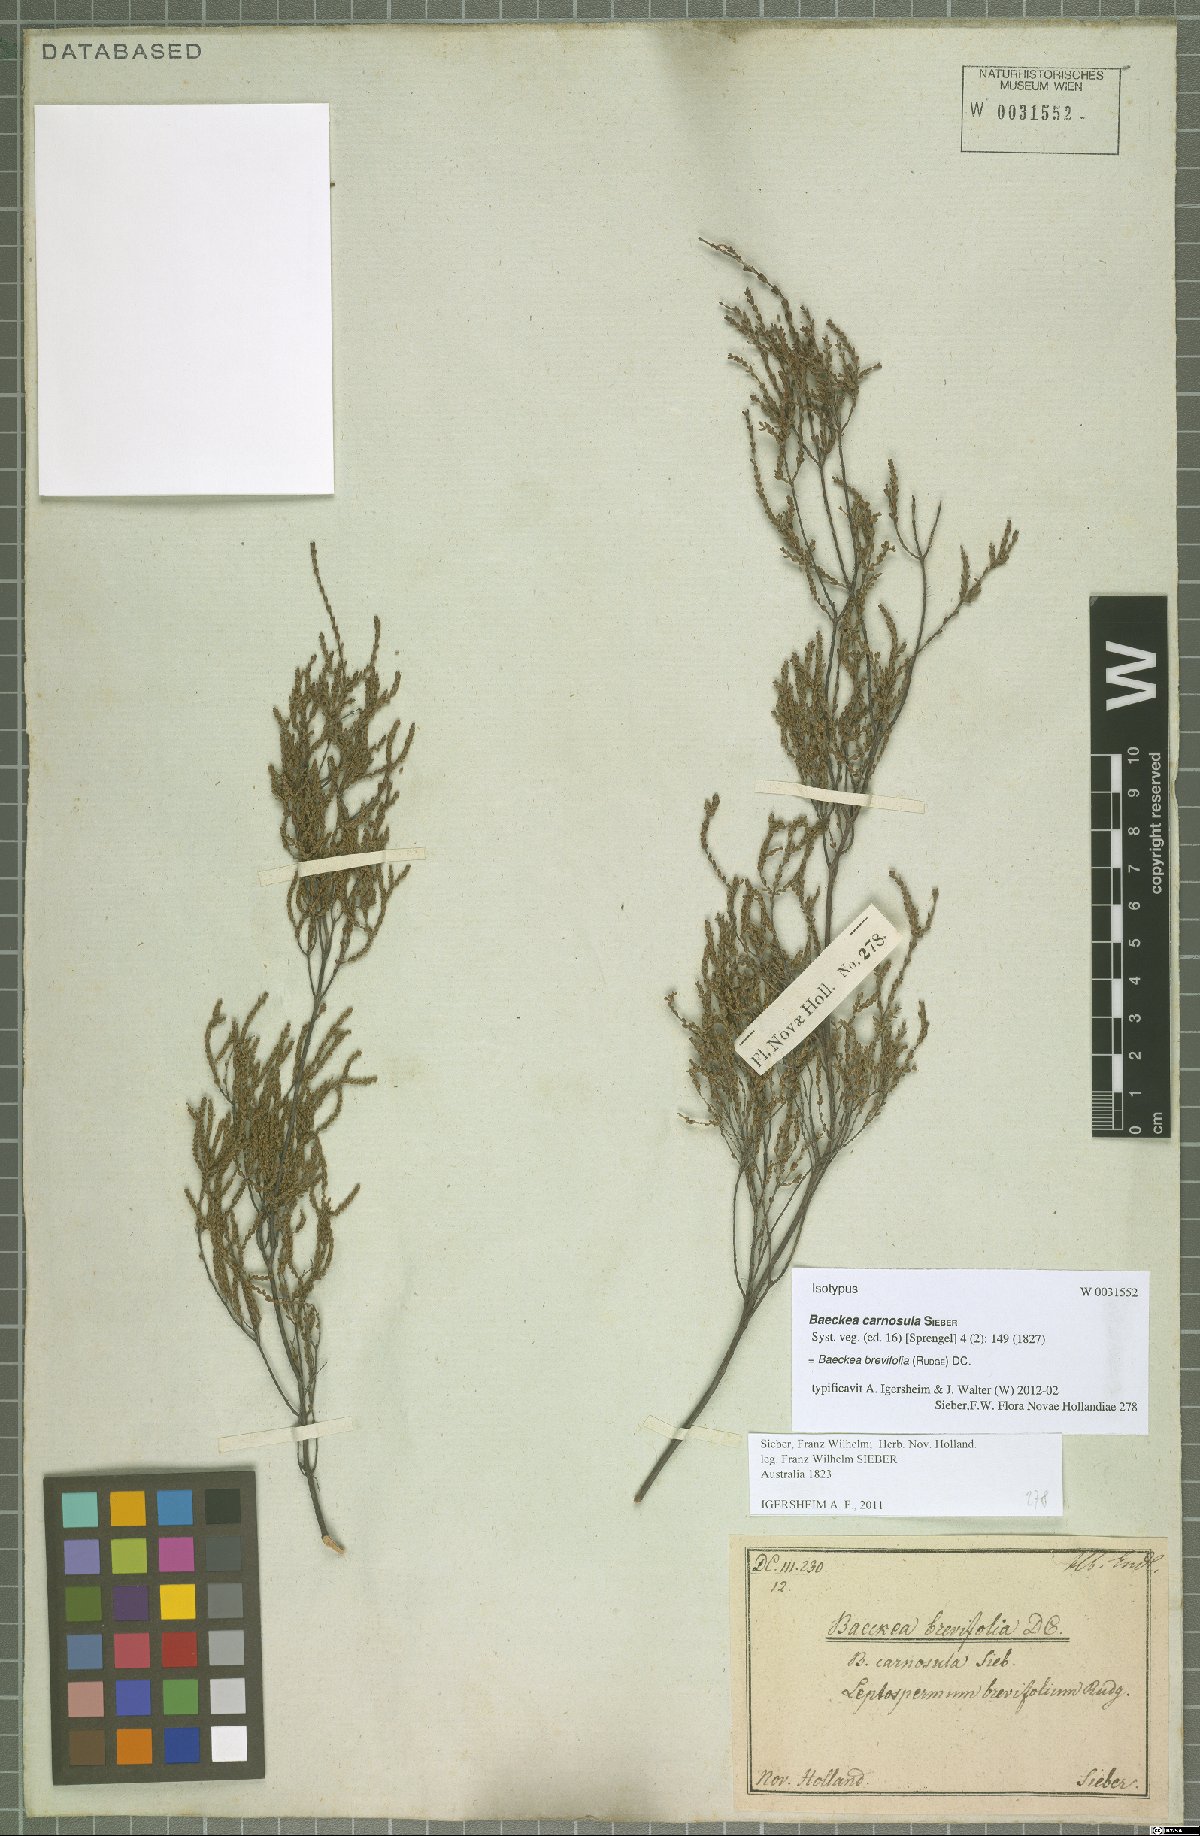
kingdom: Plantae
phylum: Tracheophyta
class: Magnoliopsida
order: Myrtales
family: Myrtaceae
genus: Baeckea
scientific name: Baeckea brevifolia
